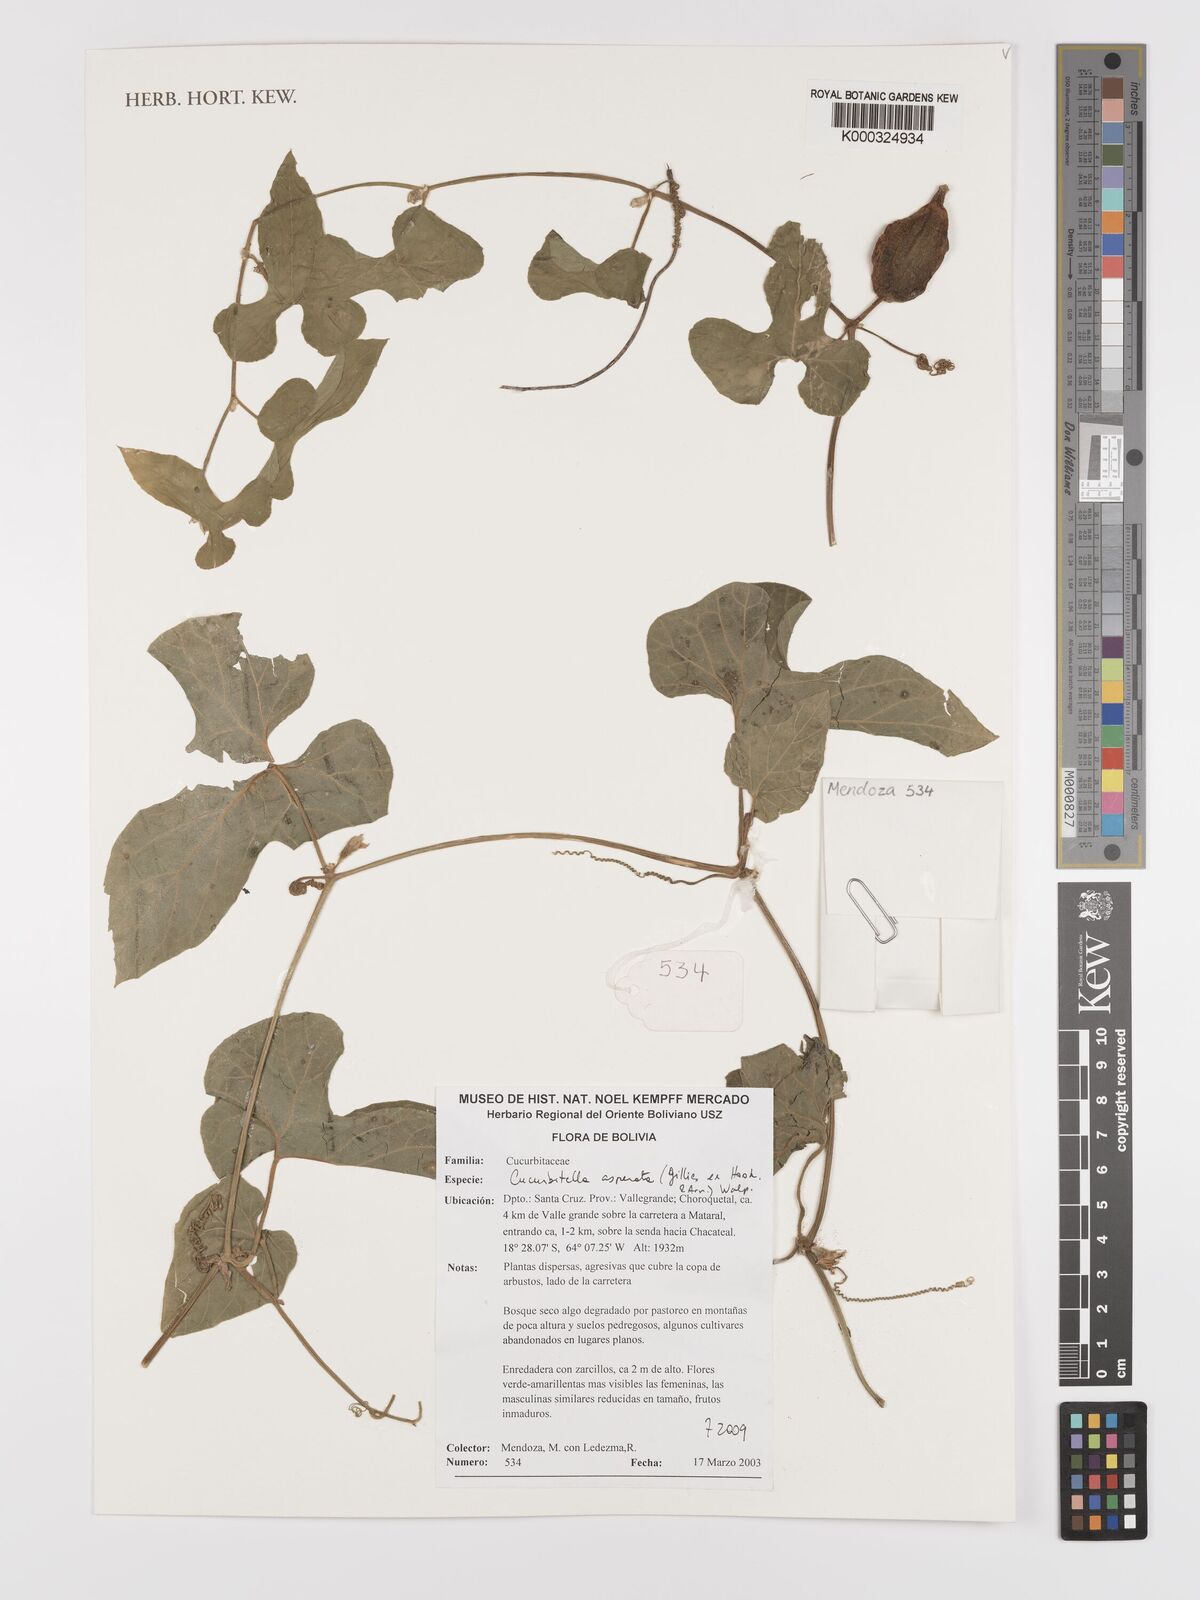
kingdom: Plantae
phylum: Tracheophyta
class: Magnoliopsida
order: Cucurbitales
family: Cucurbitaceae
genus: Cucurbitella
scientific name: Cucurbitella asperata
